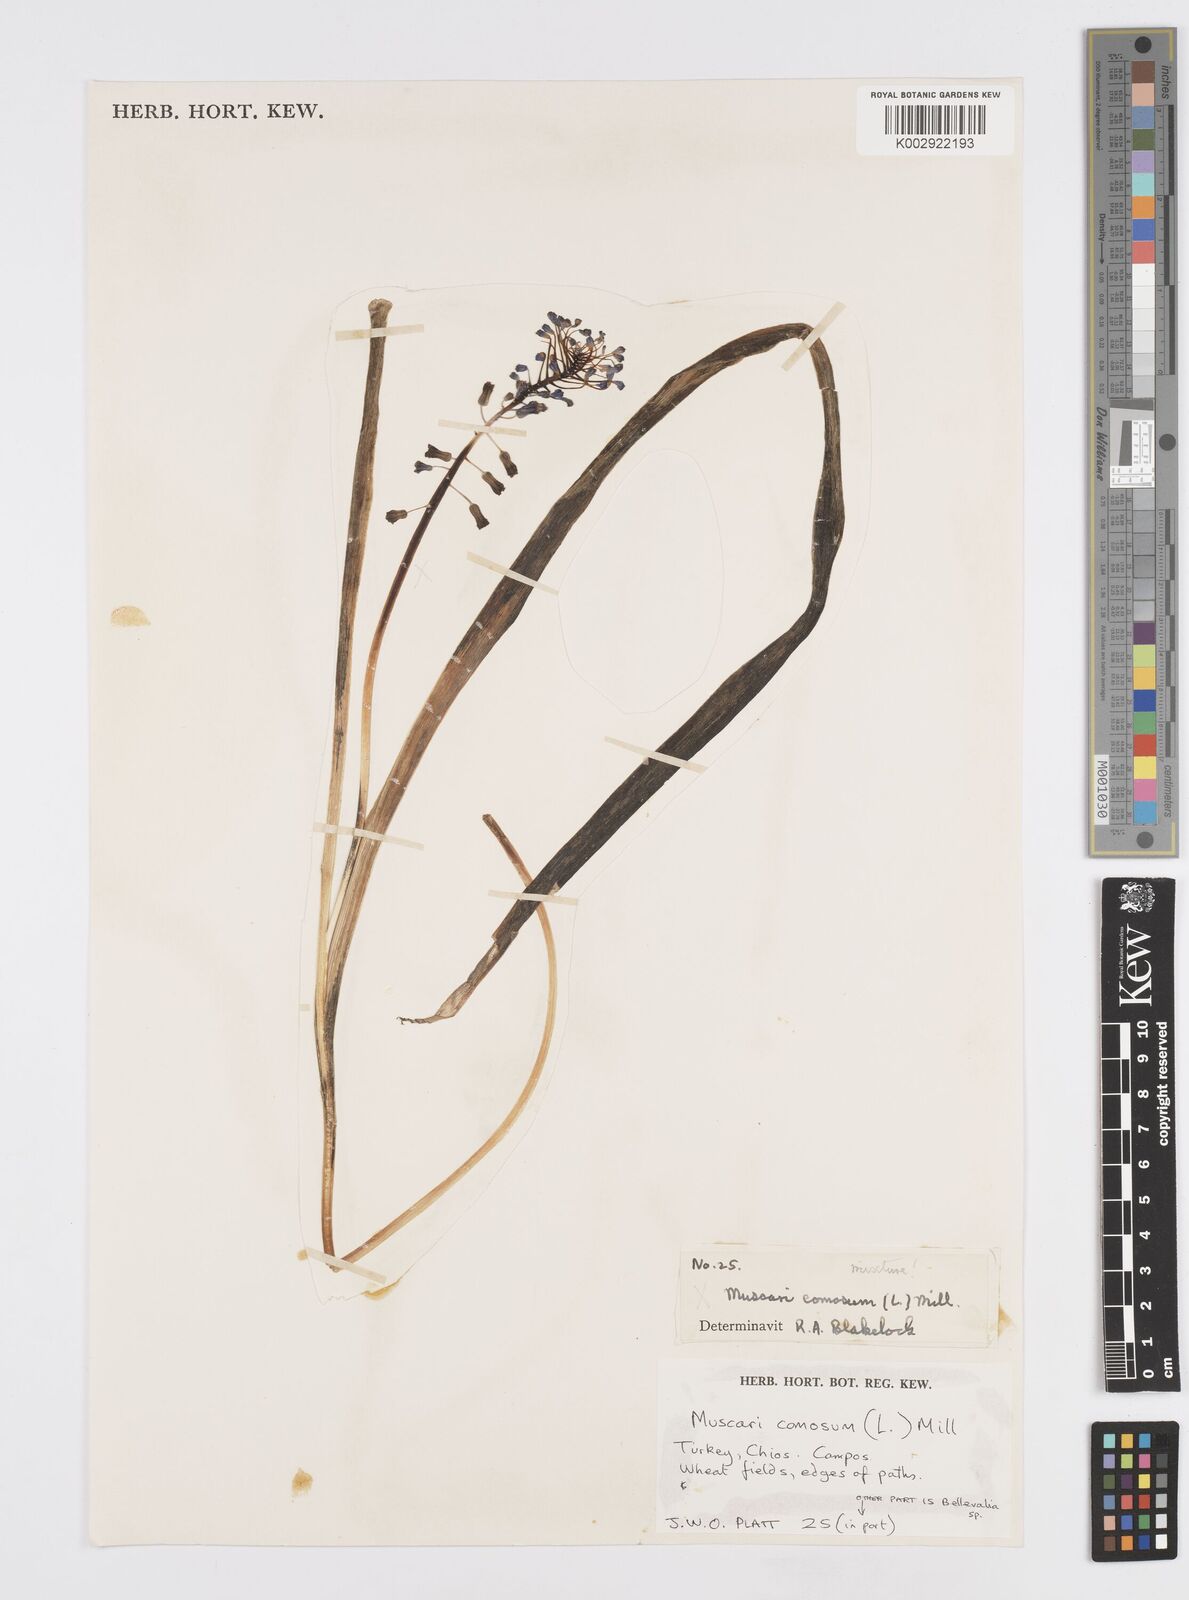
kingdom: Plantae
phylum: Tracheophyta
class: Liliopsida
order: Asparagales
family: Asparagaceae
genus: Muscari
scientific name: Muscari comosum
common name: Tassel hyacinth
